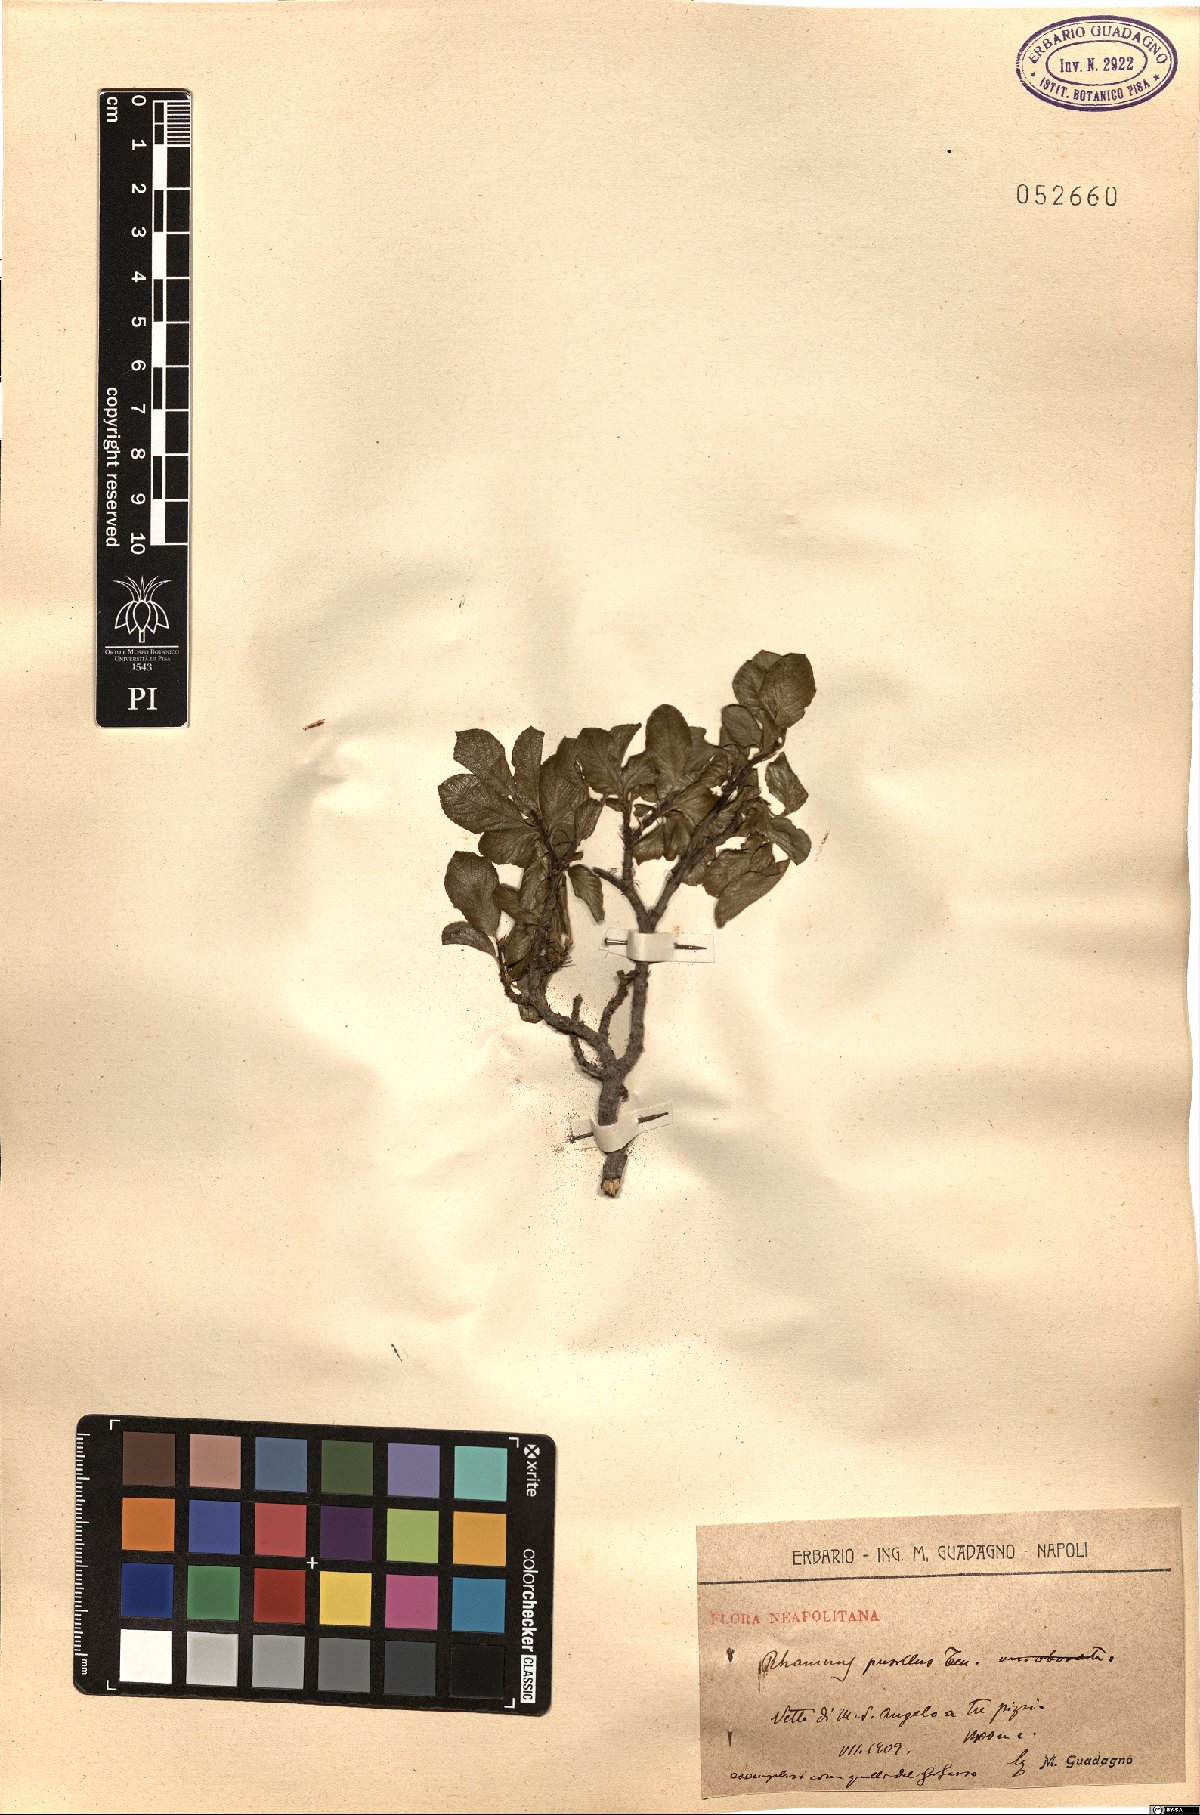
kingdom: Plantae
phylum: Tracheophyta
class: Magnoliopsida
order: Rosales
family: Rhamnaceae
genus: Atadinus
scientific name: Atadinus pumilus
